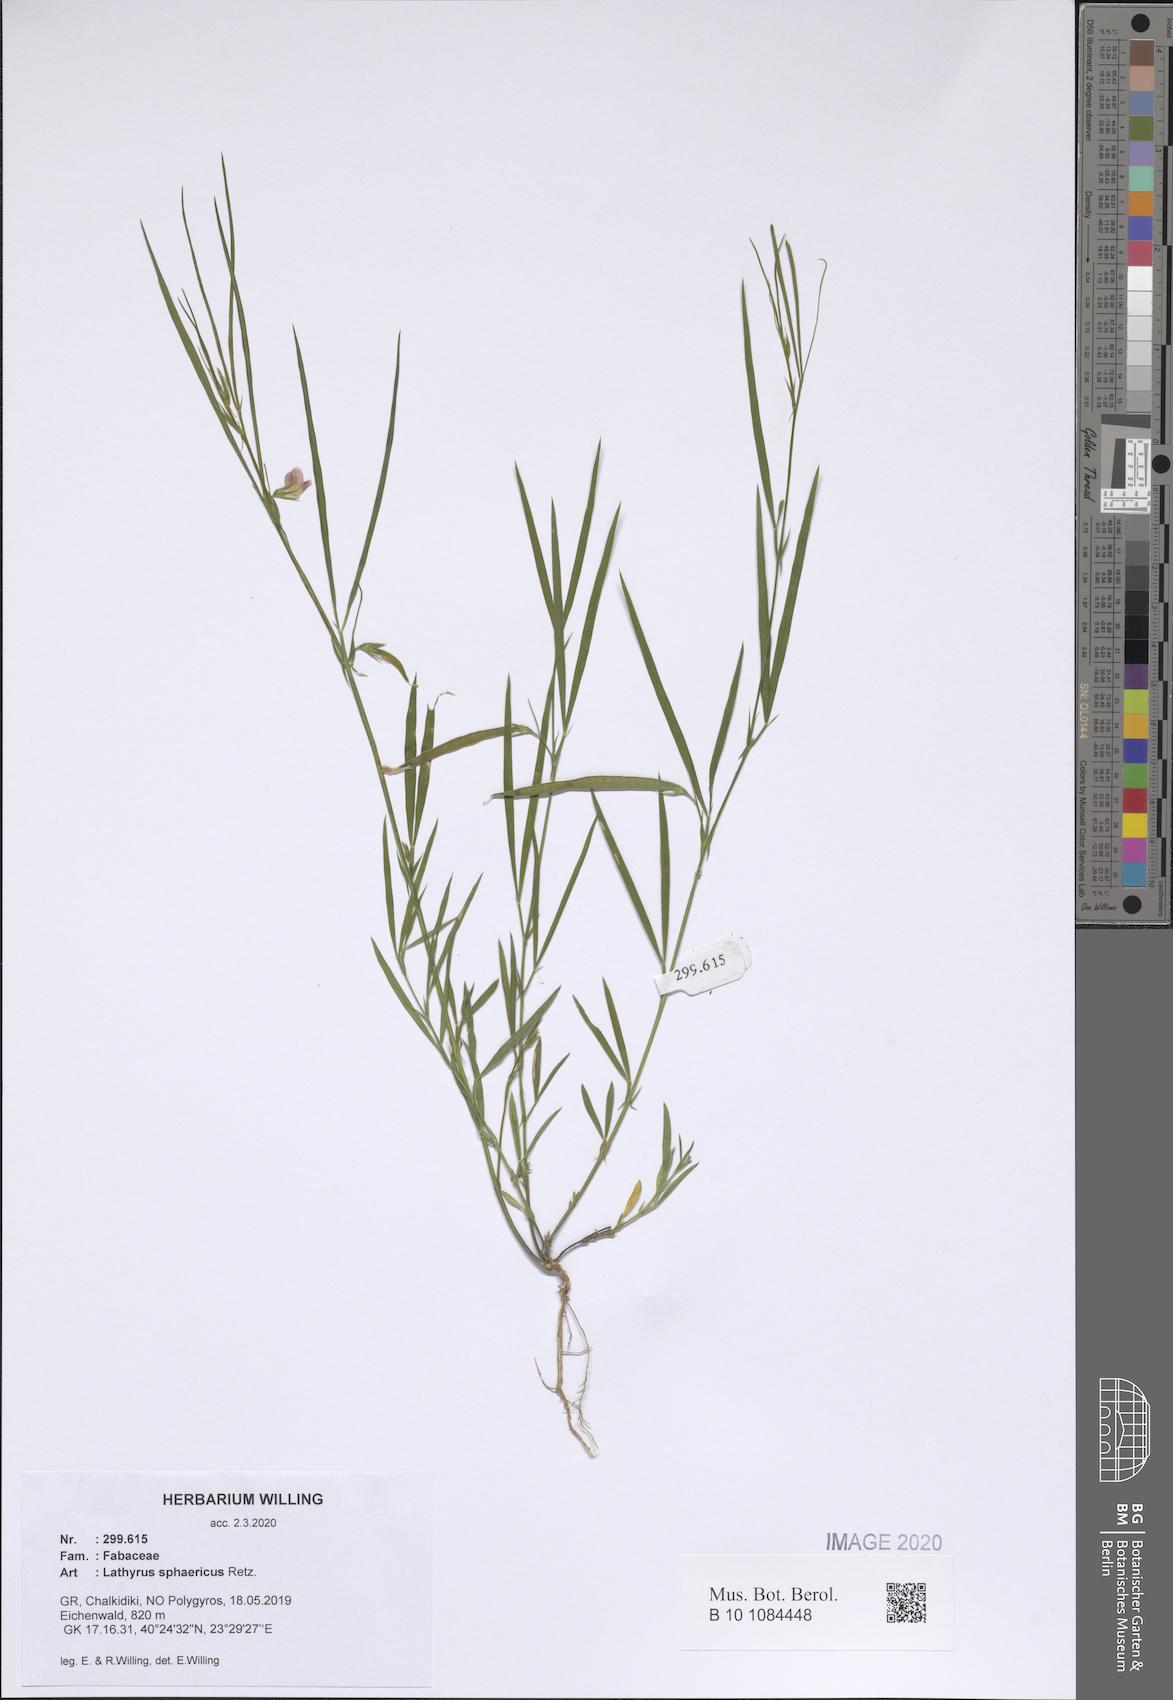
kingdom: Plantae
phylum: Tracheophyta
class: Magnoliopsida
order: Fabales
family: Fabaceae
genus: Lathyrus
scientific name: Lathyrus sphaericus
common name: Grass pea
